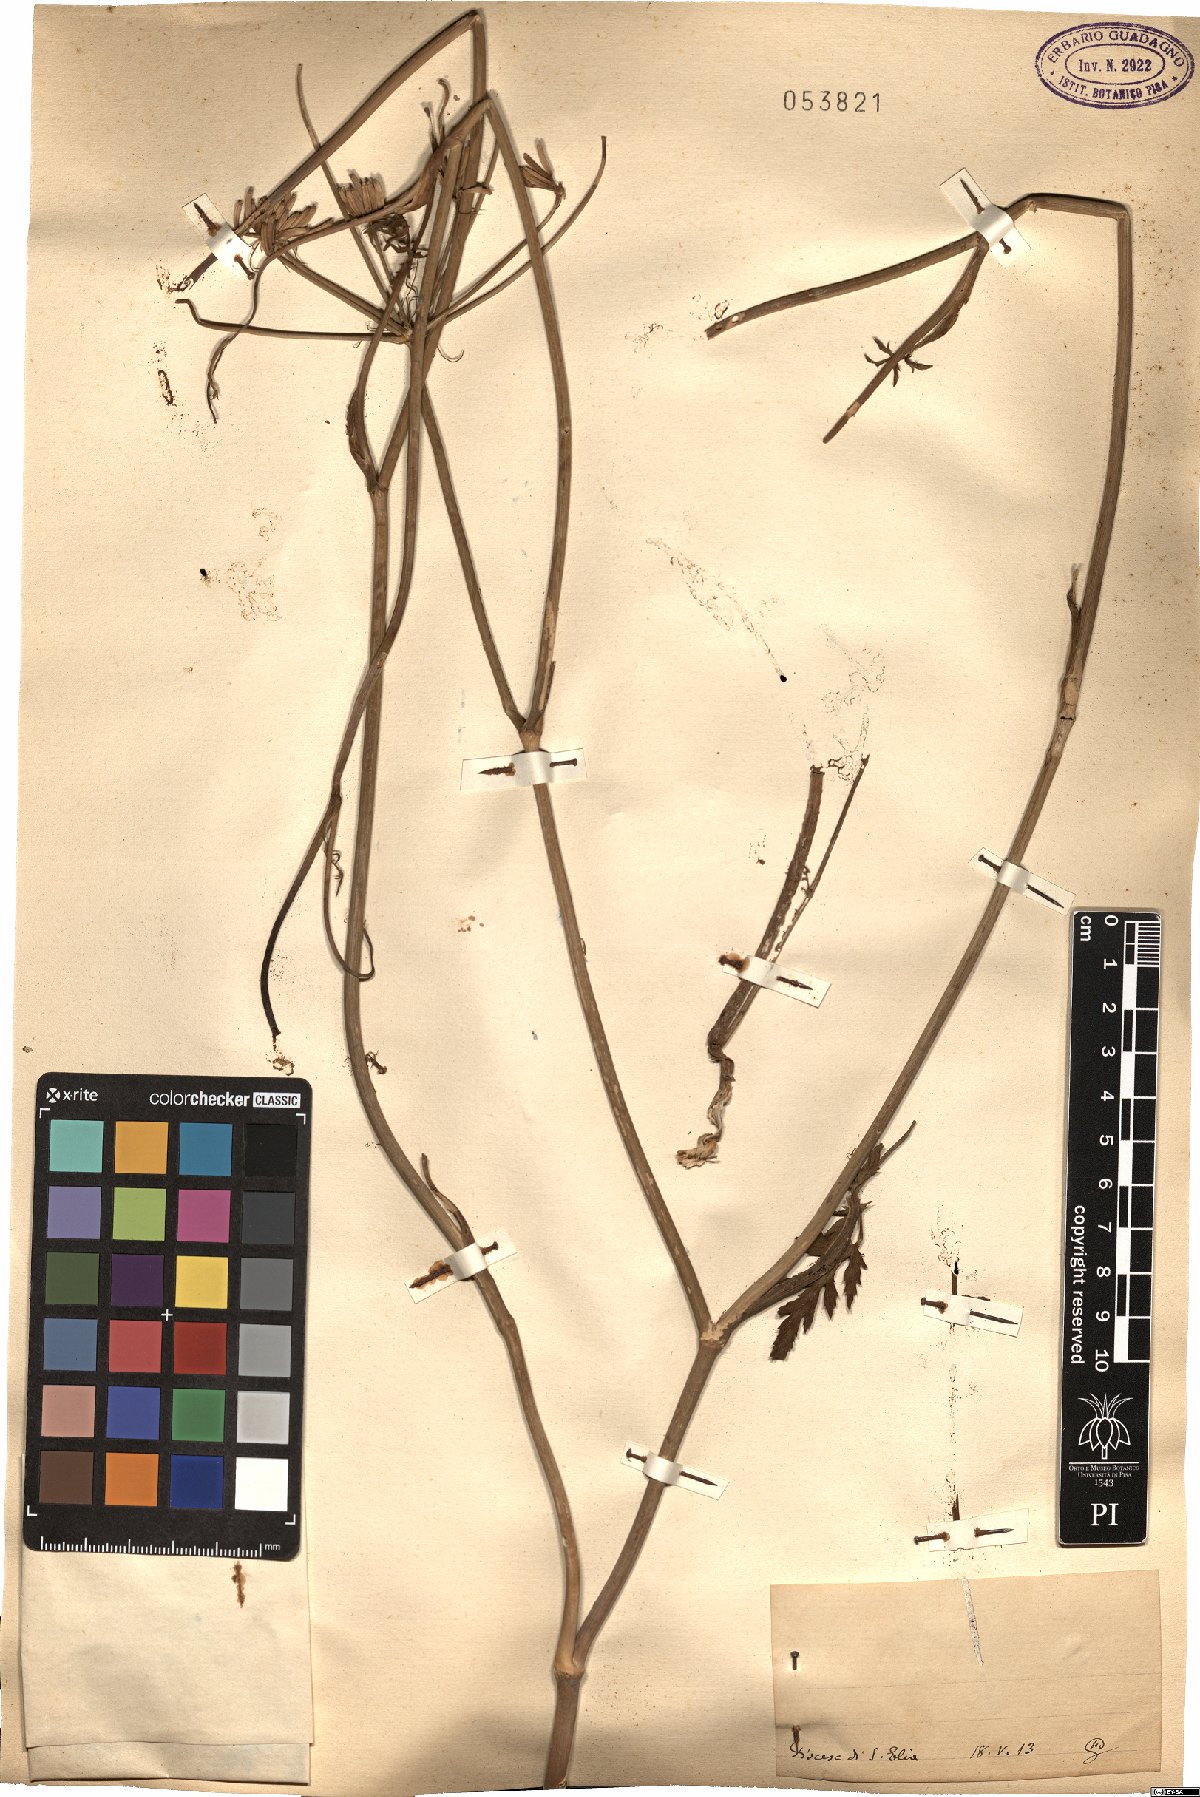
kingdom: Animalia
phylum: Arthropoda
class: Arachnida
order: Araneae
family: Oonopidae
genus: Brignolia
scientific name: Brignolia
